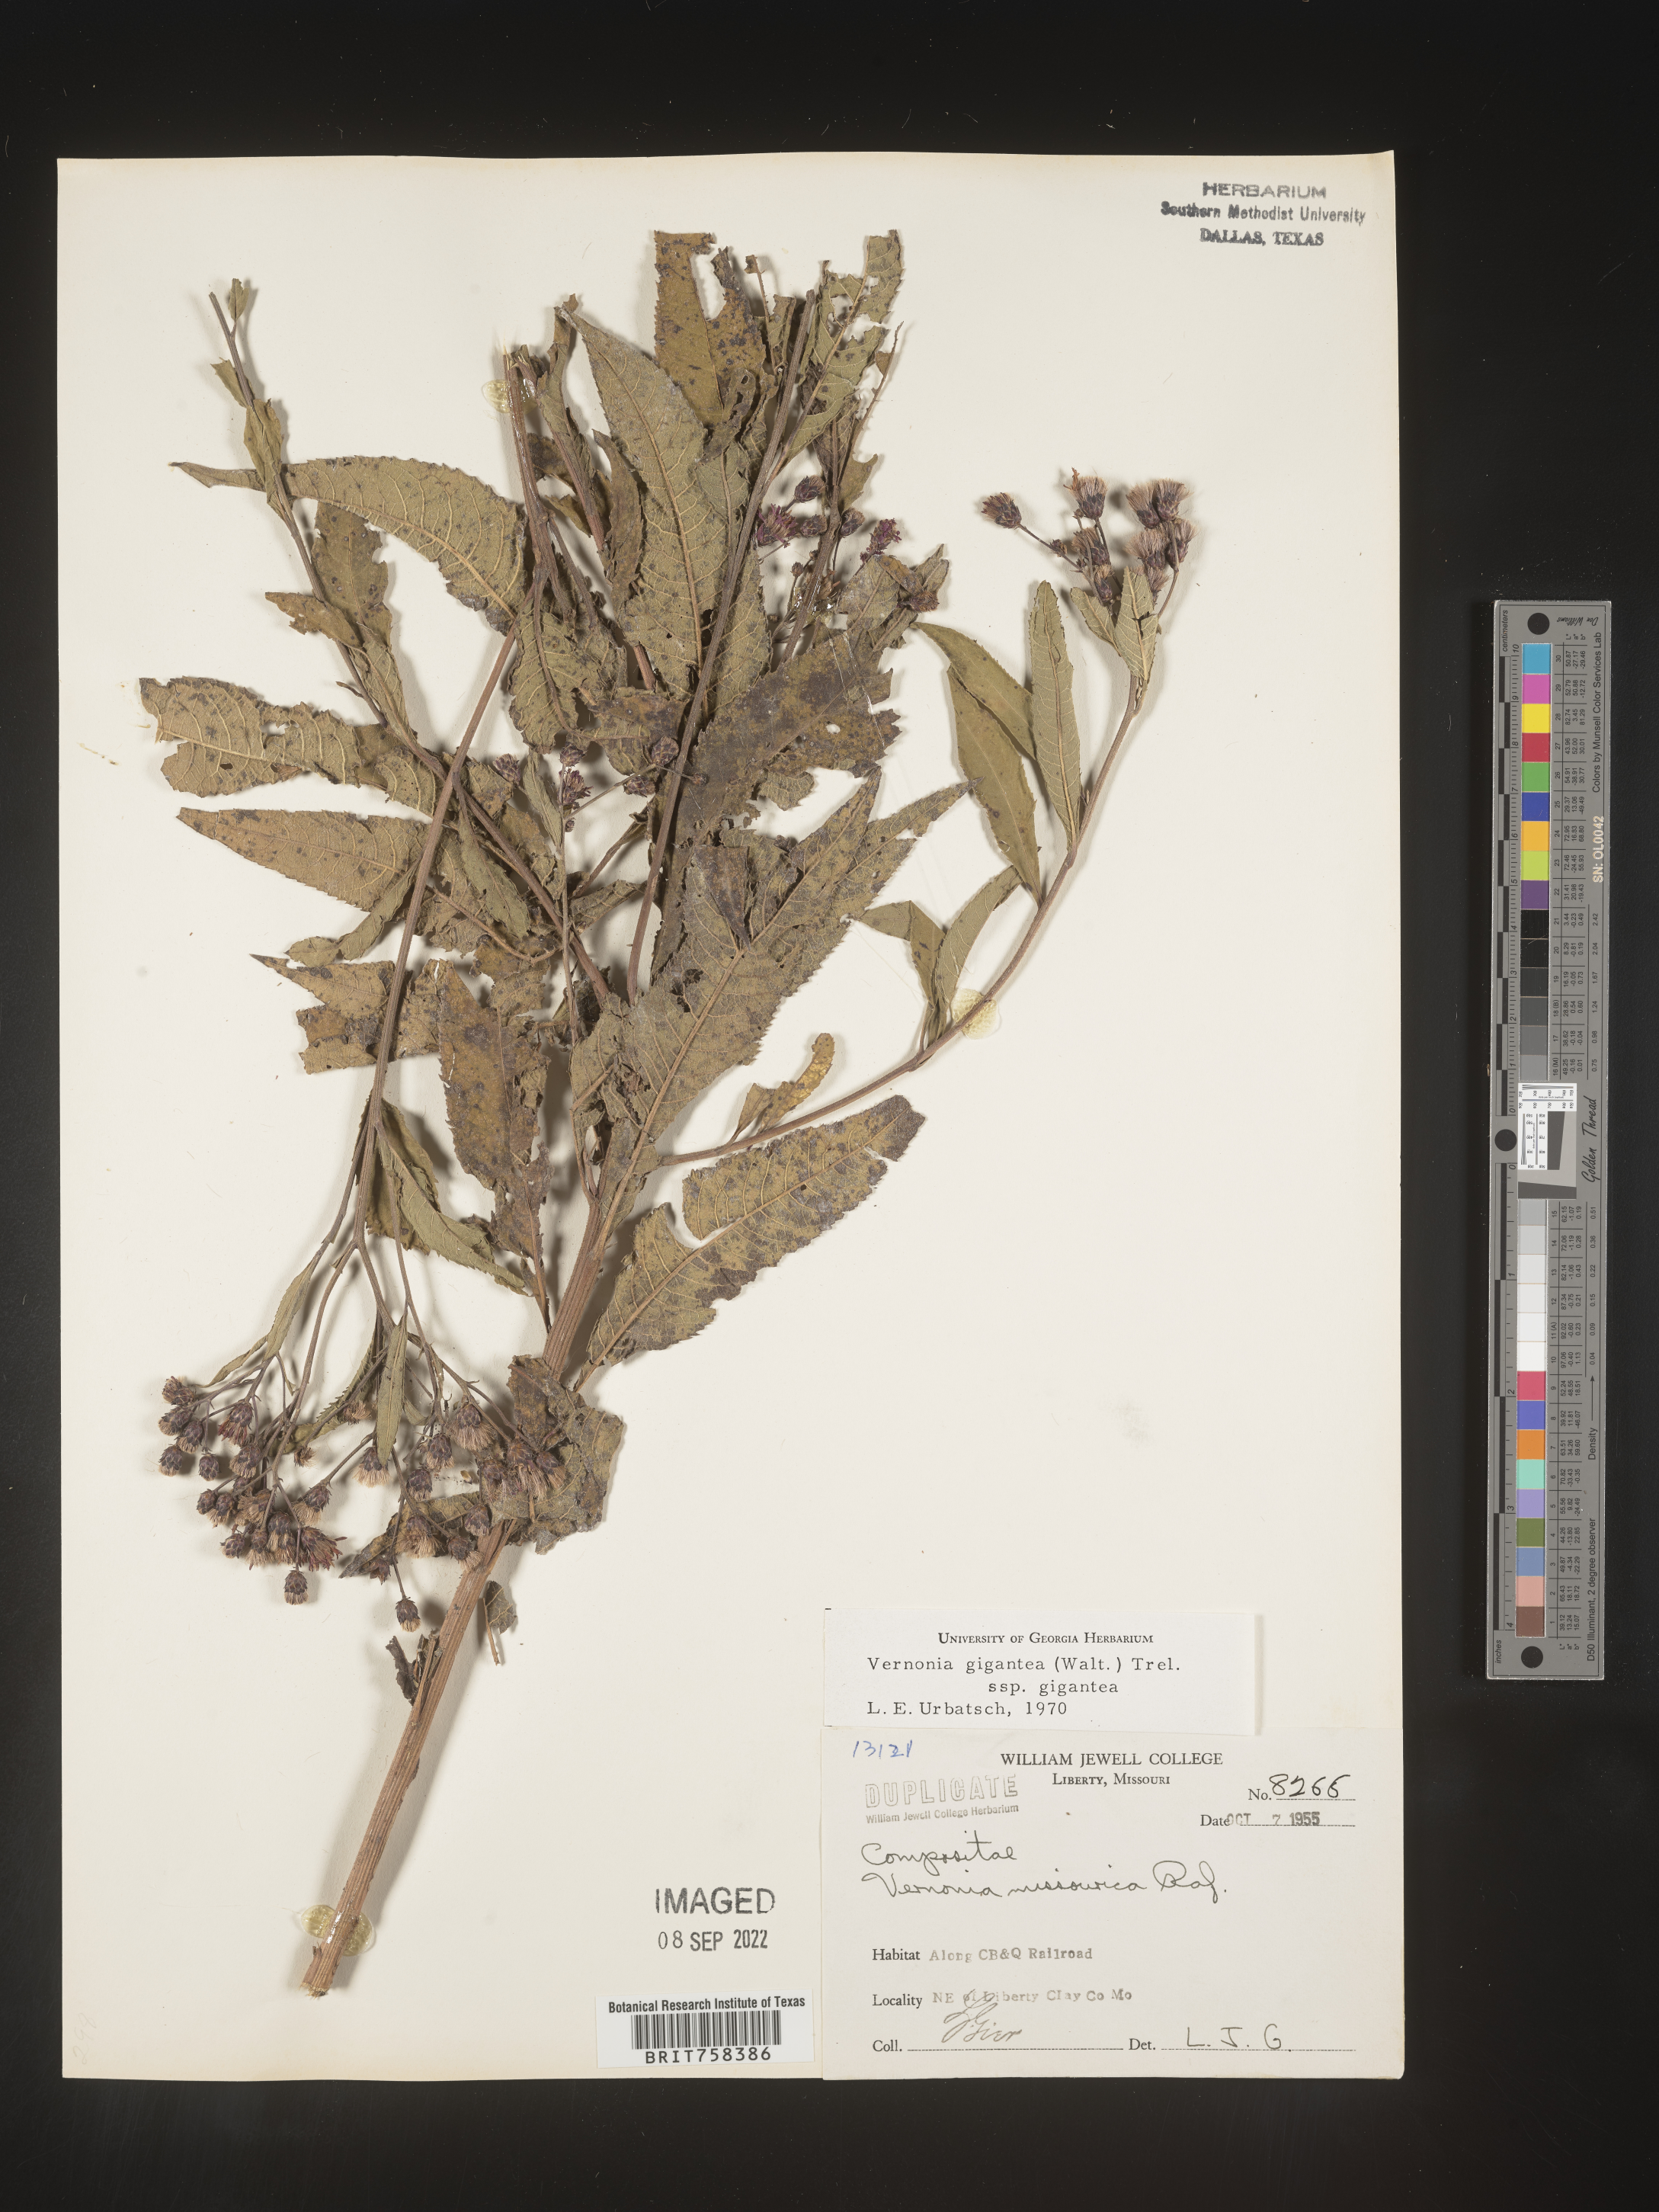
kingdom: Plantae
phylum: Tracheophyta
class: Magnoliopsida
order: Asterales
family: Asteraceae
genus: Vernonia
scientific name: Vernonia gigantea
